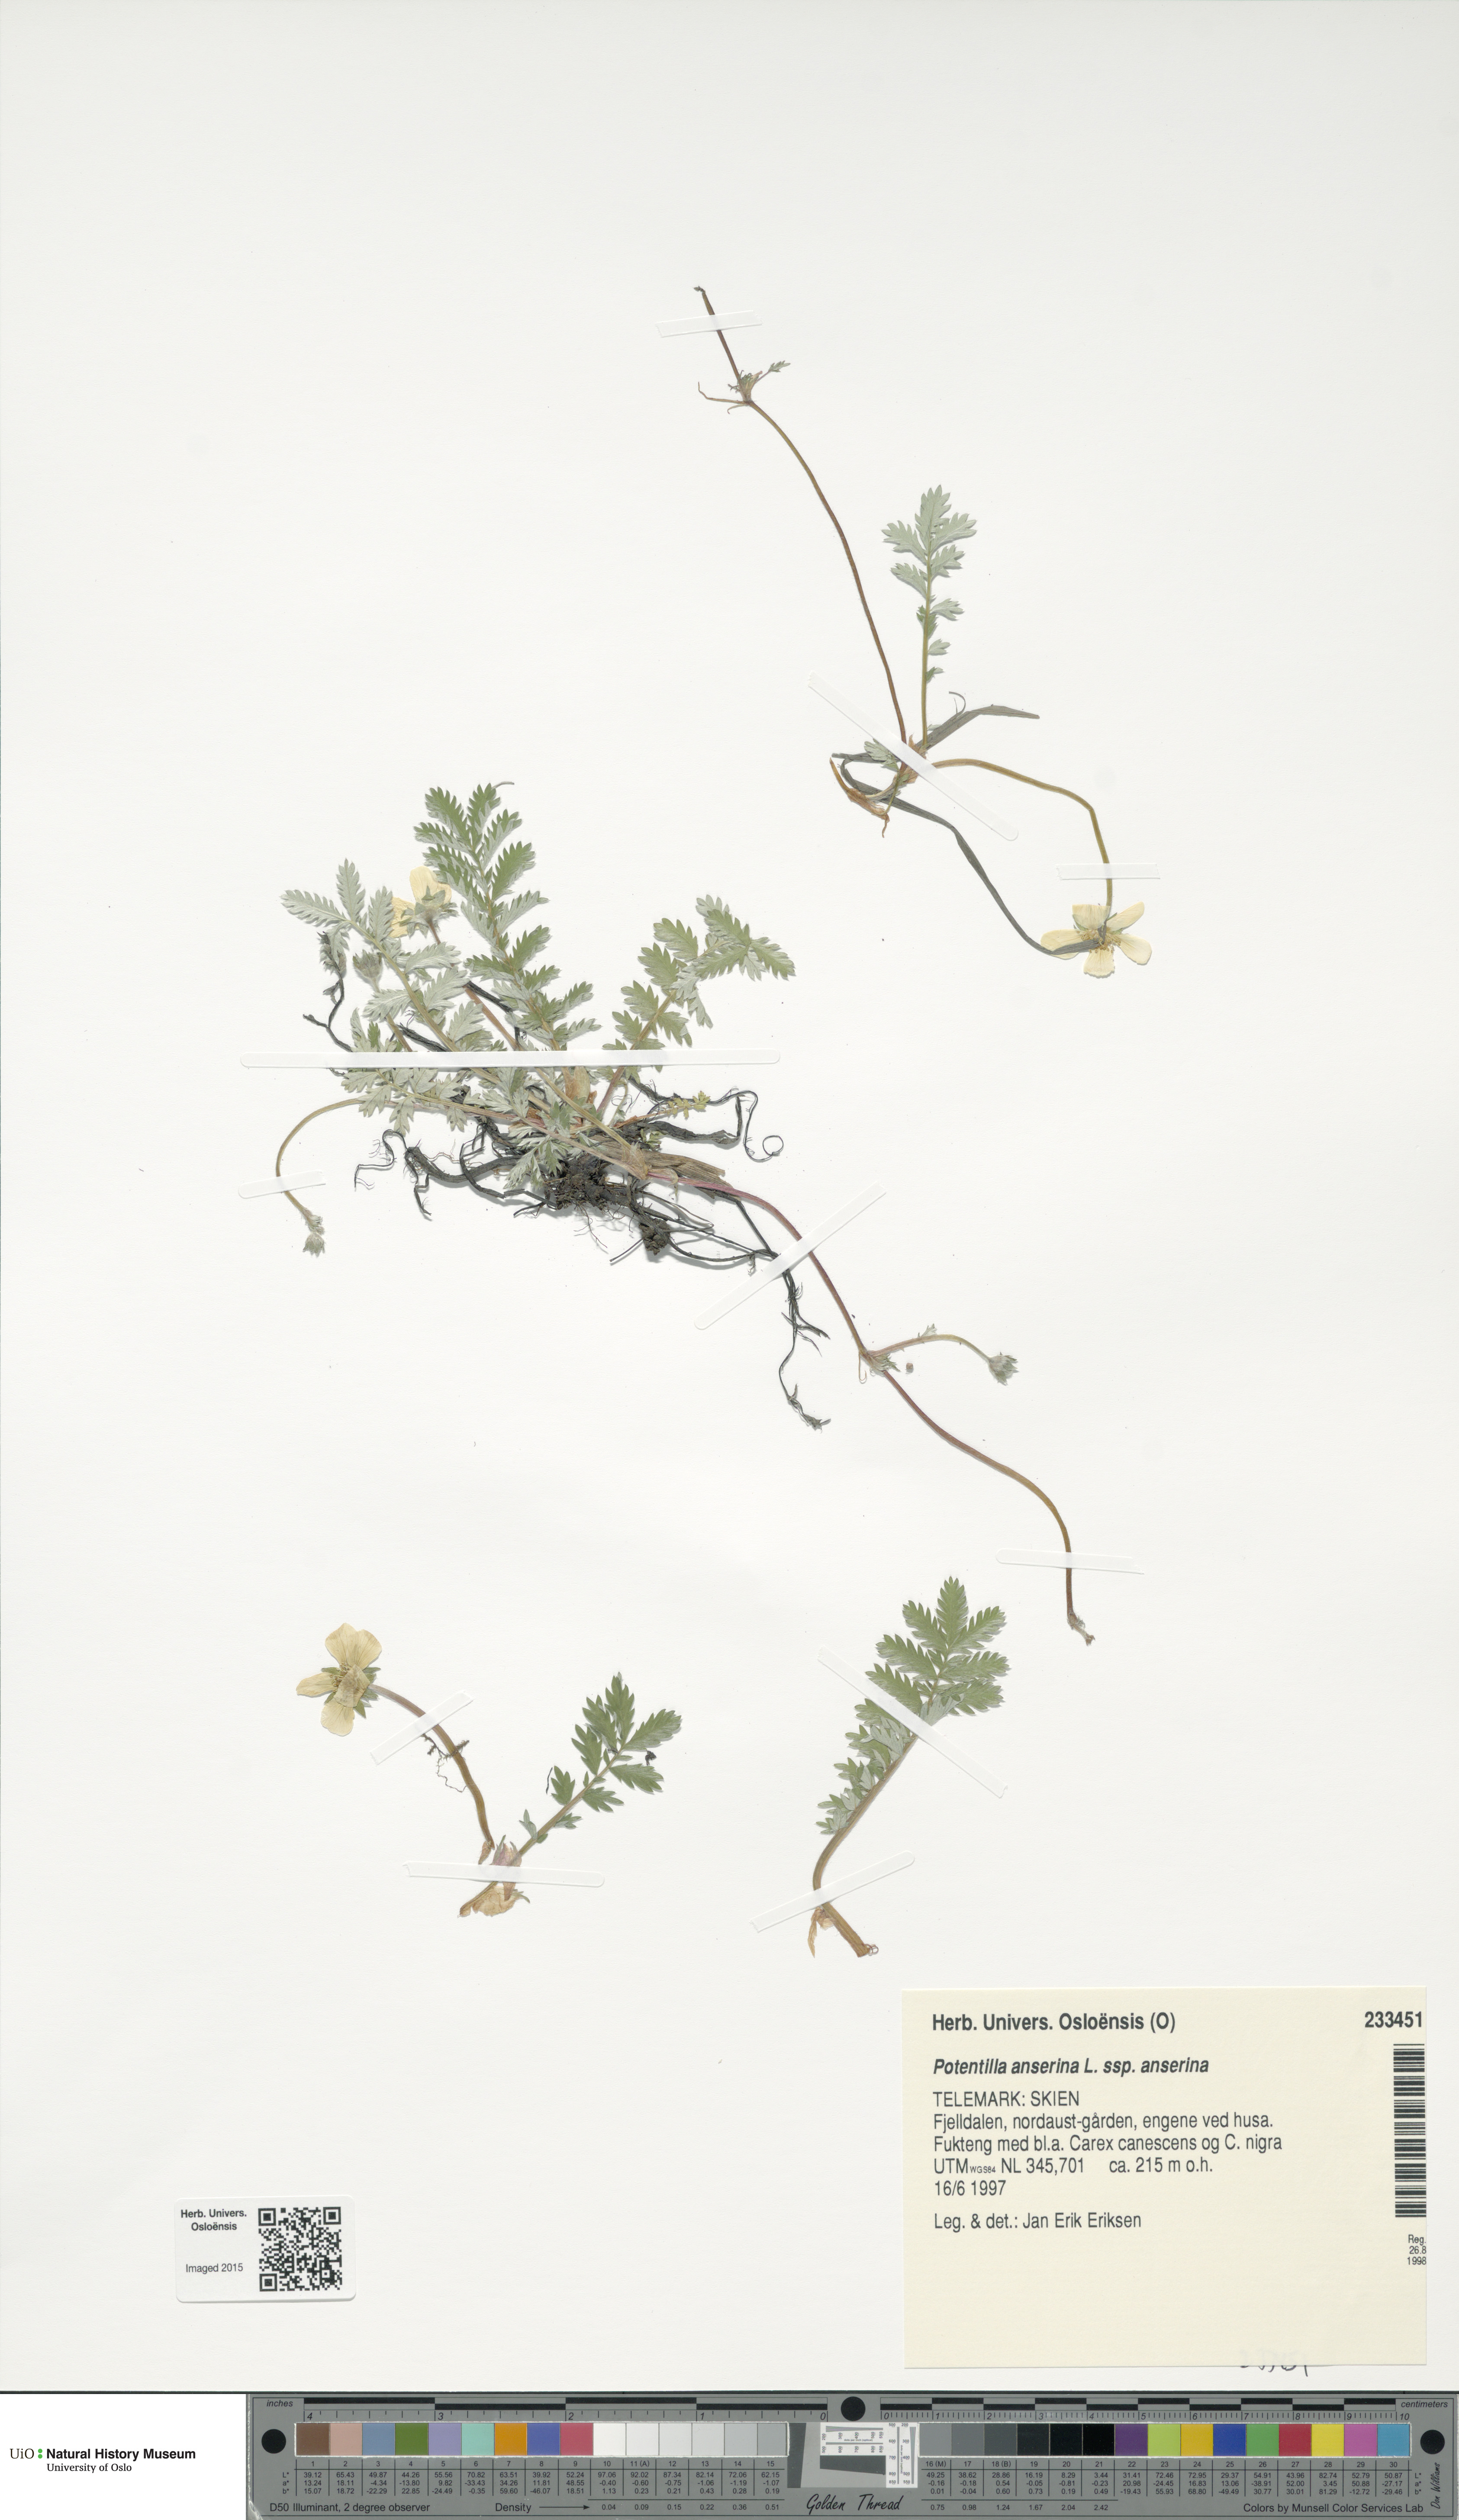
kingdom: Plantae
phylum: Tracheophyta
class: Magnoliopsida
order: Rosales
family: Rosaceae
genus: Argentina
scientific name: Argentina anserina
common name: Common silverweed
